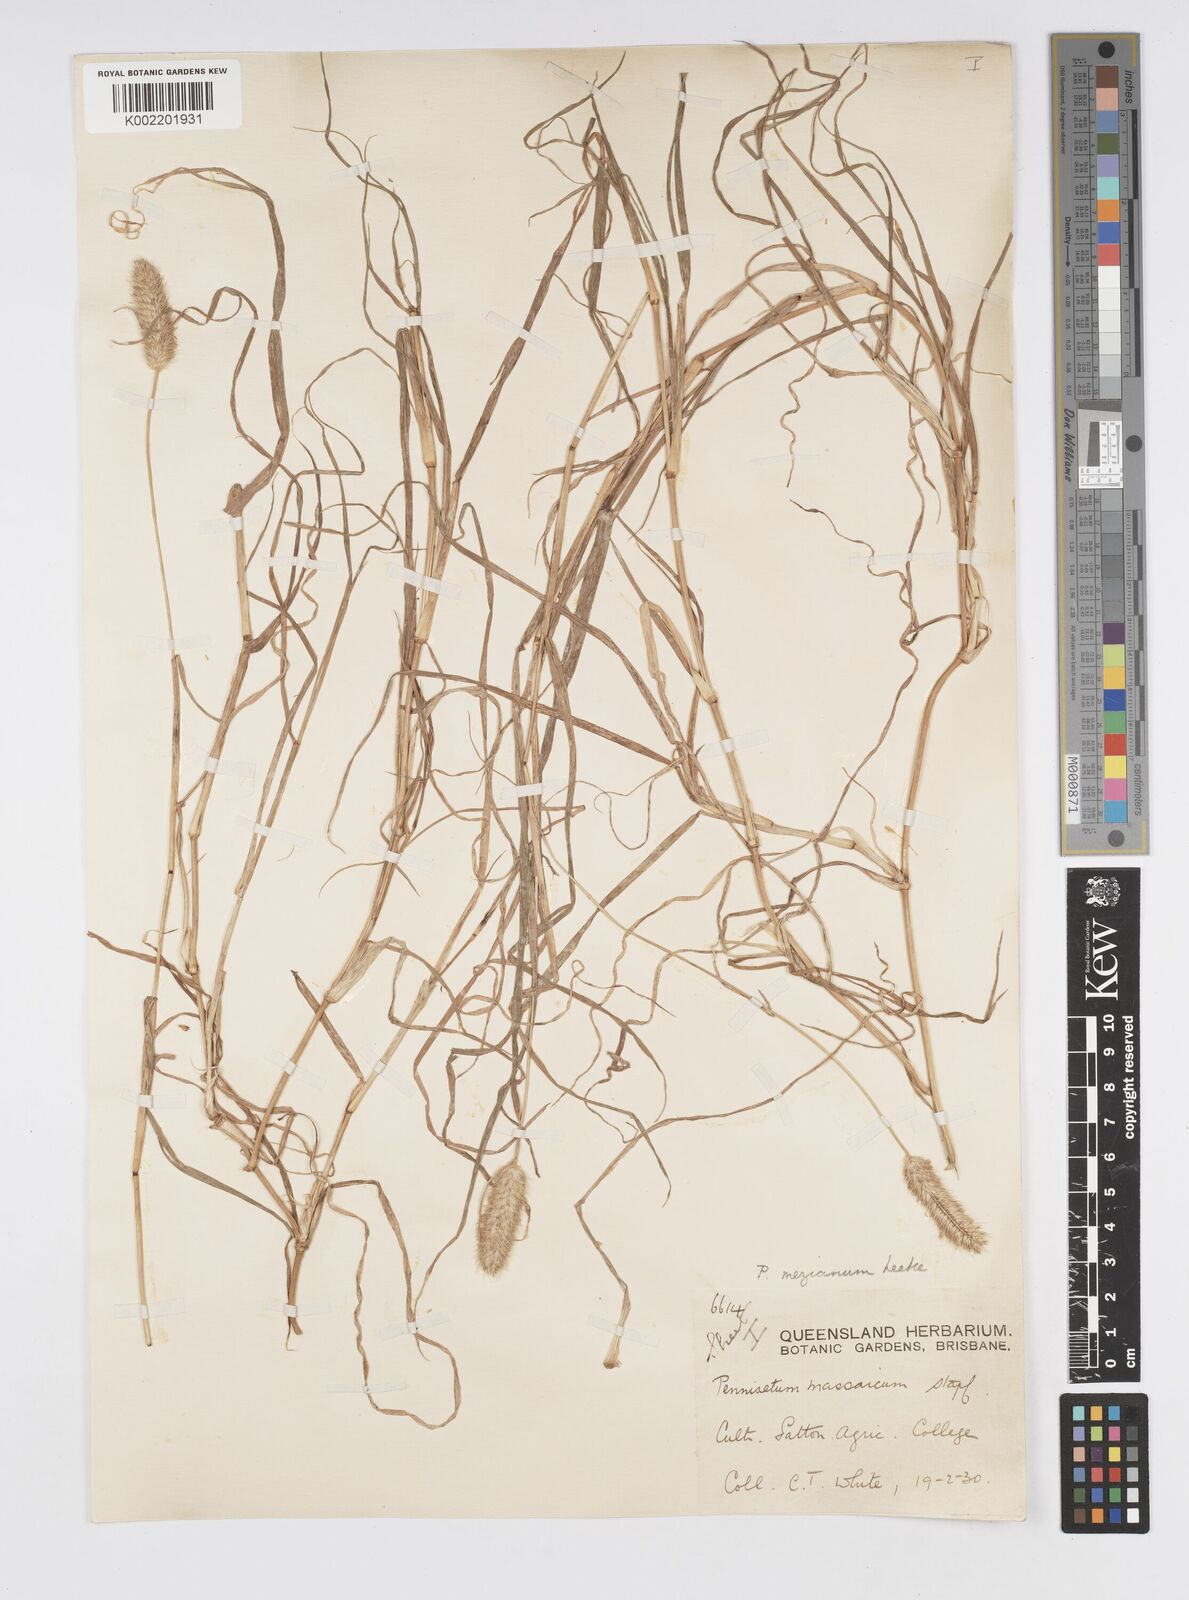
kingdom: Plantae
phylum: Tracheophyta
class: Liliopsida
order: Poales
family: Poaceae
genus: Cenchrus
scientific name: Cenchrus mezianus
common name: Bamboo grass
